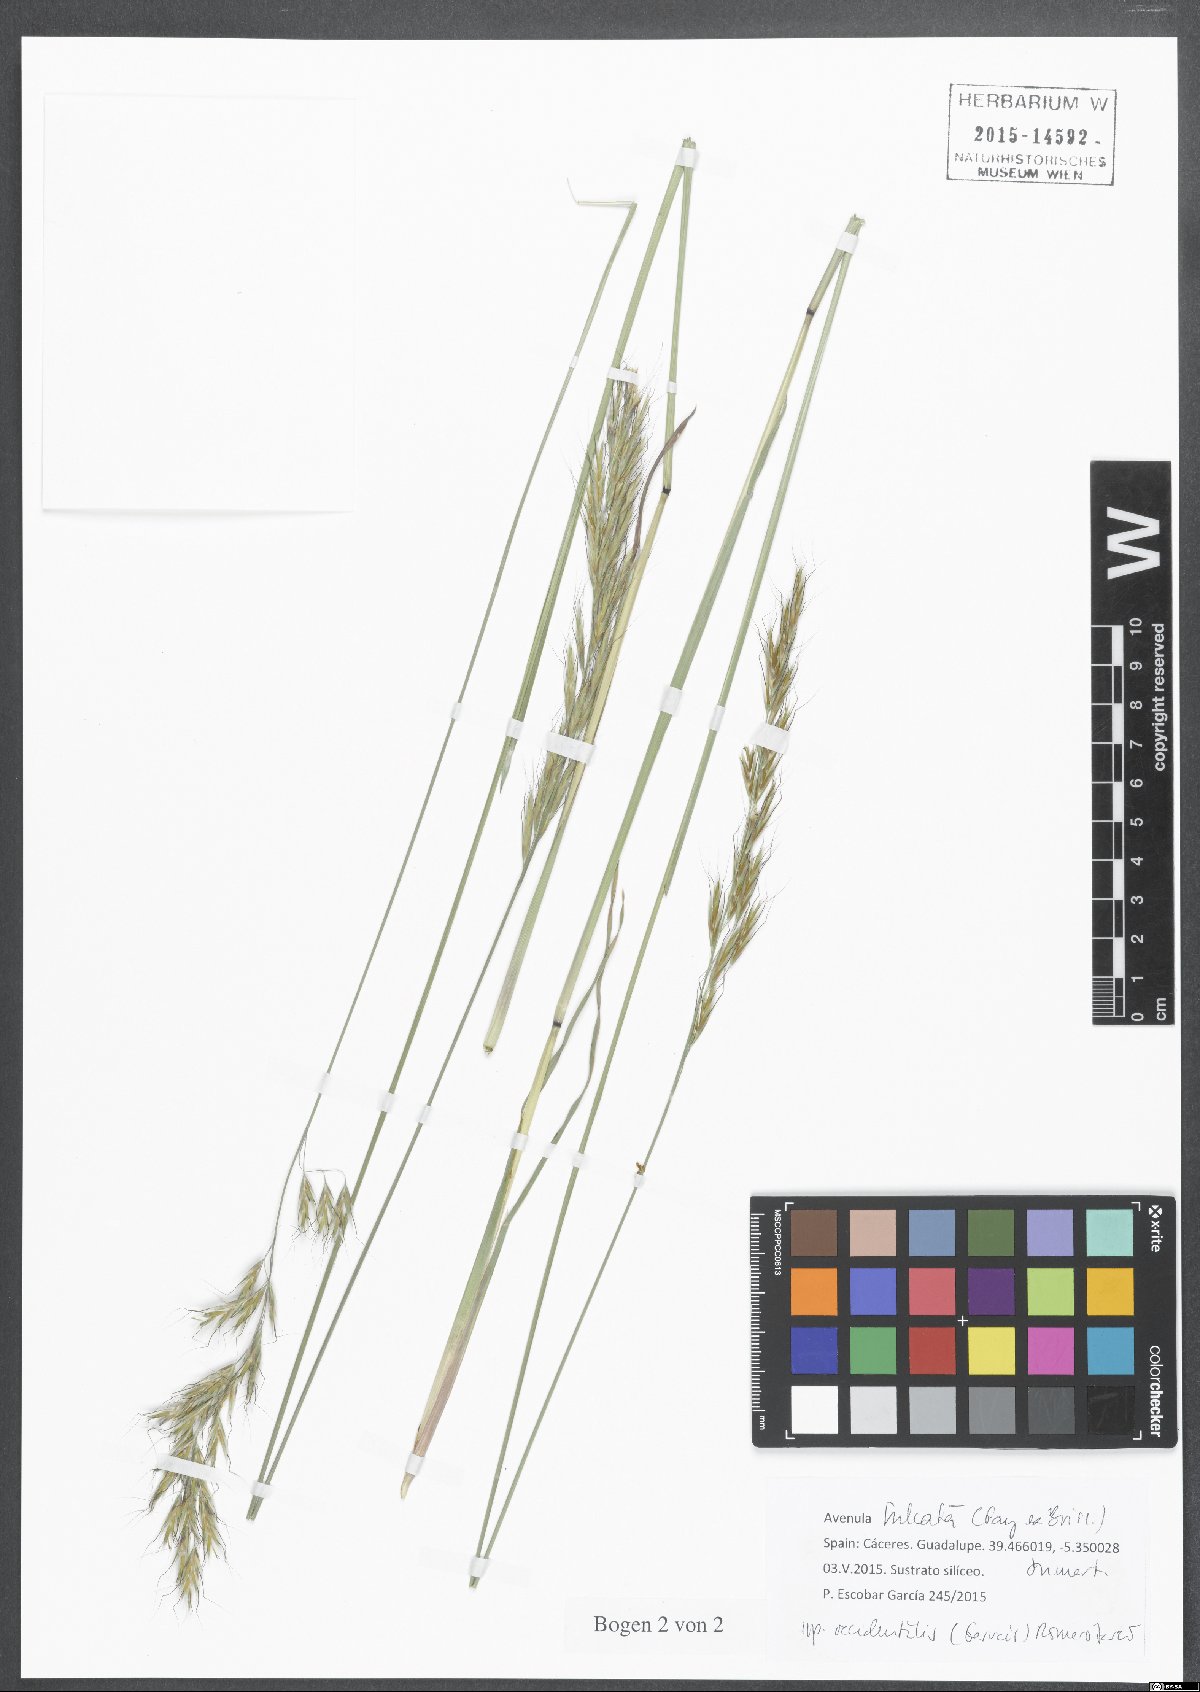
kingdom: Plantae
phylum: Tracheophyta
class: Liliopsida
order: Poales
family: Poaceae
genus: Helictochloa
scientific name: Helictochloa marginata
